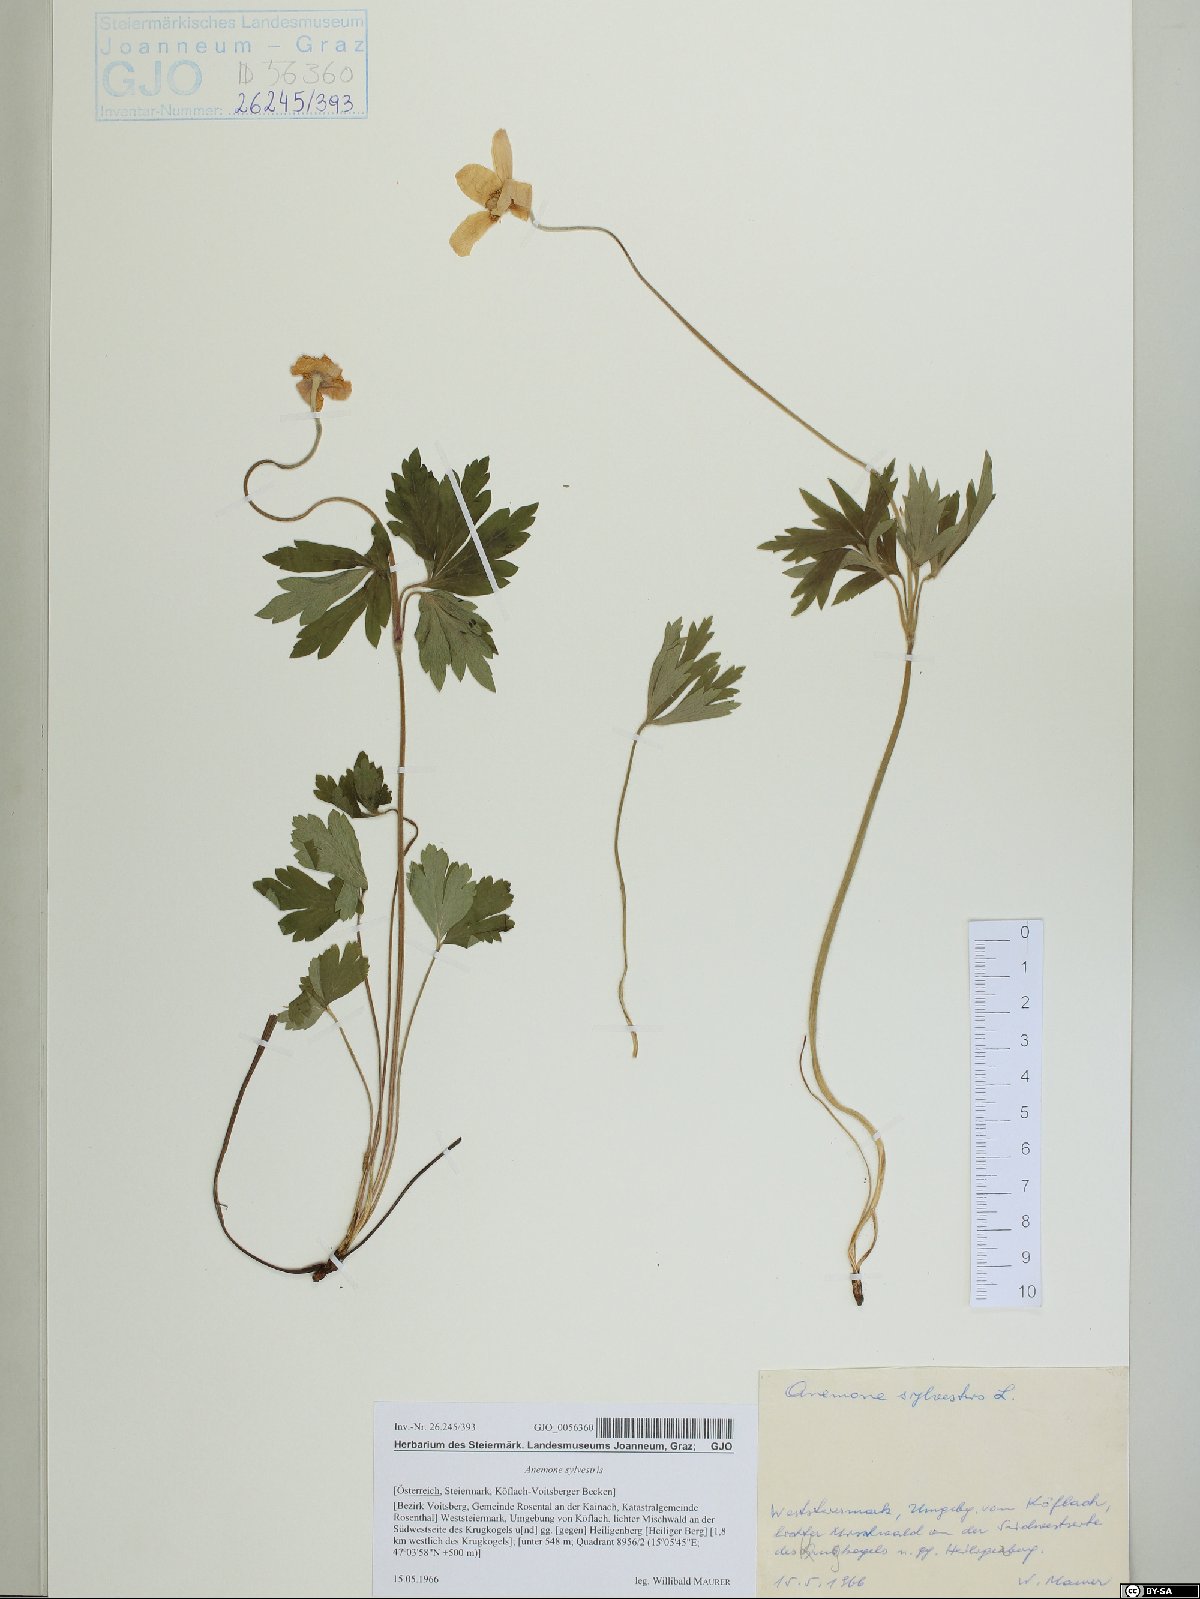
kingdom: Plantae
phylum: Tracheophyta
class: Magnoliopsida
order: Ranunculales
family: Ranunculaceae
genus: Anemone
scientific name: Anemone sylvestris
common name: Snowdrop anemone
